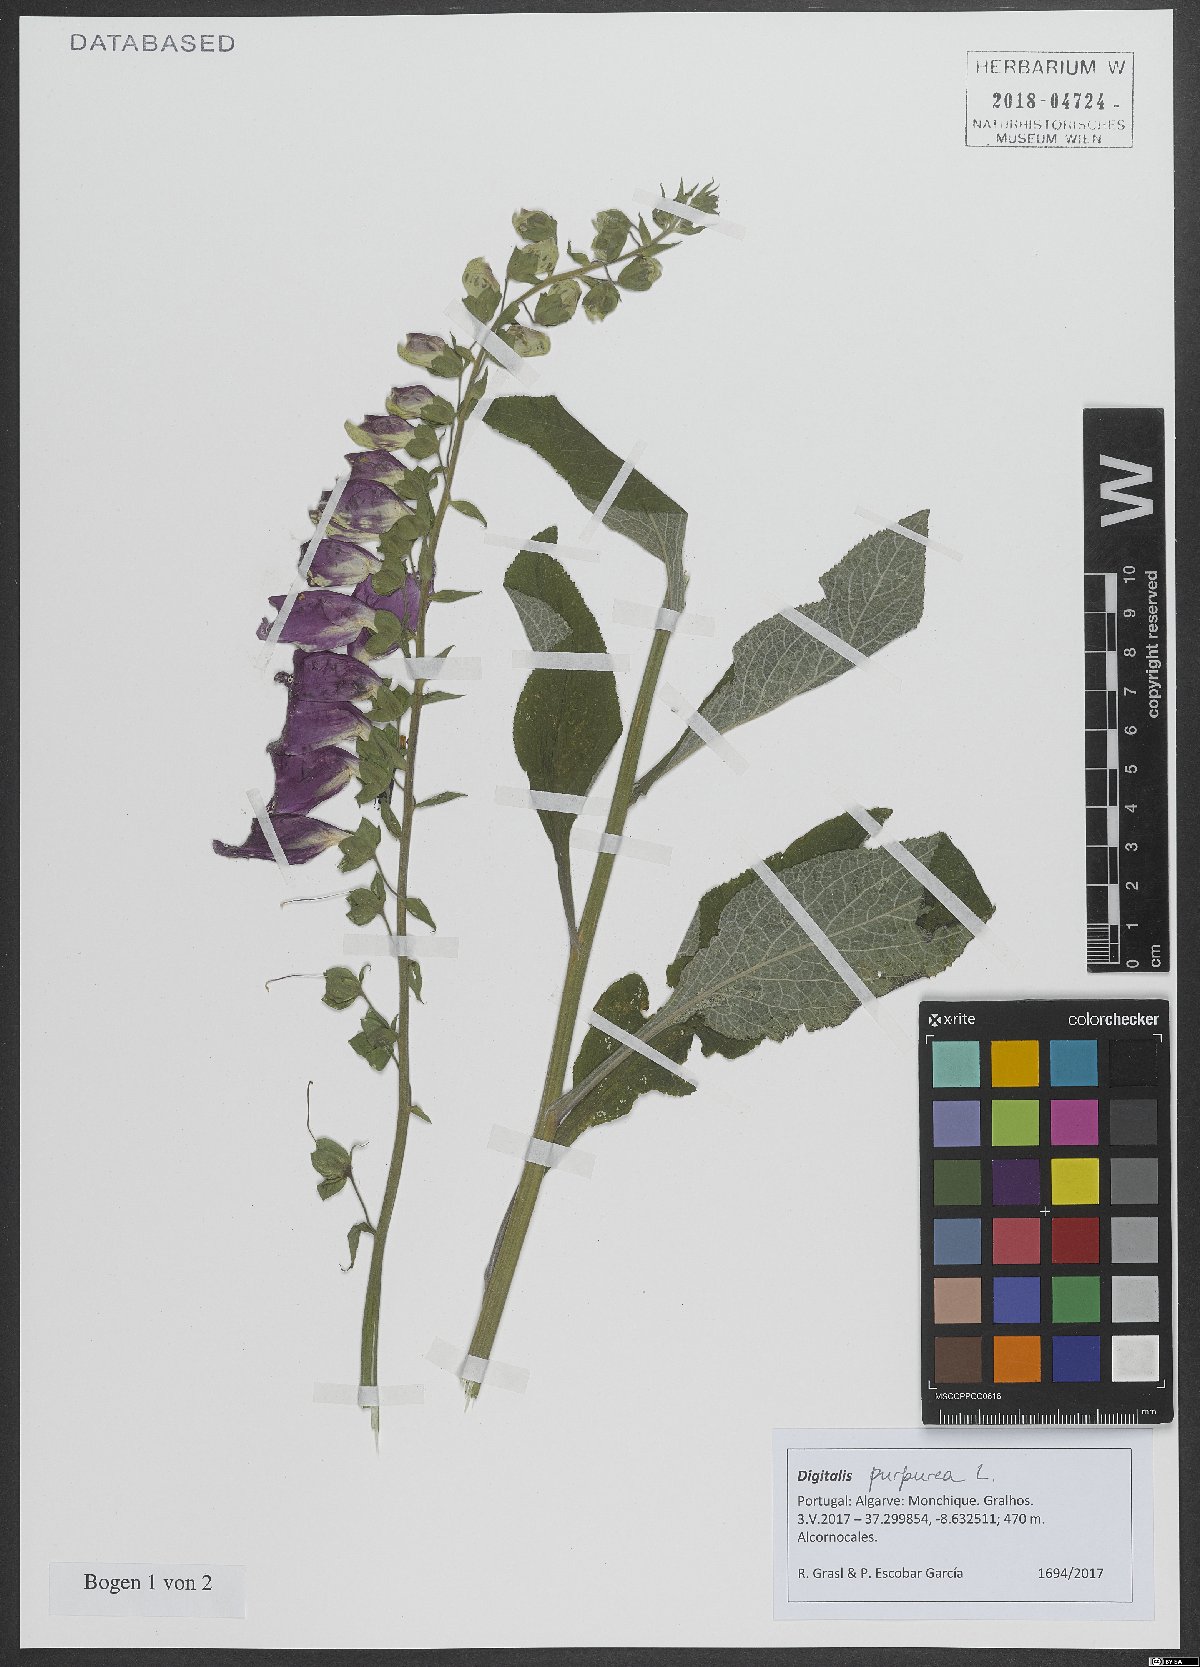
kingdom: Plantae
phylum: Tracheophyta
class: Magnoliopsida
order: Lamiales
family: Plantaginaceae
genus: Digitalis
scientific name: Digitalis purpurea
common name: Foxglove
